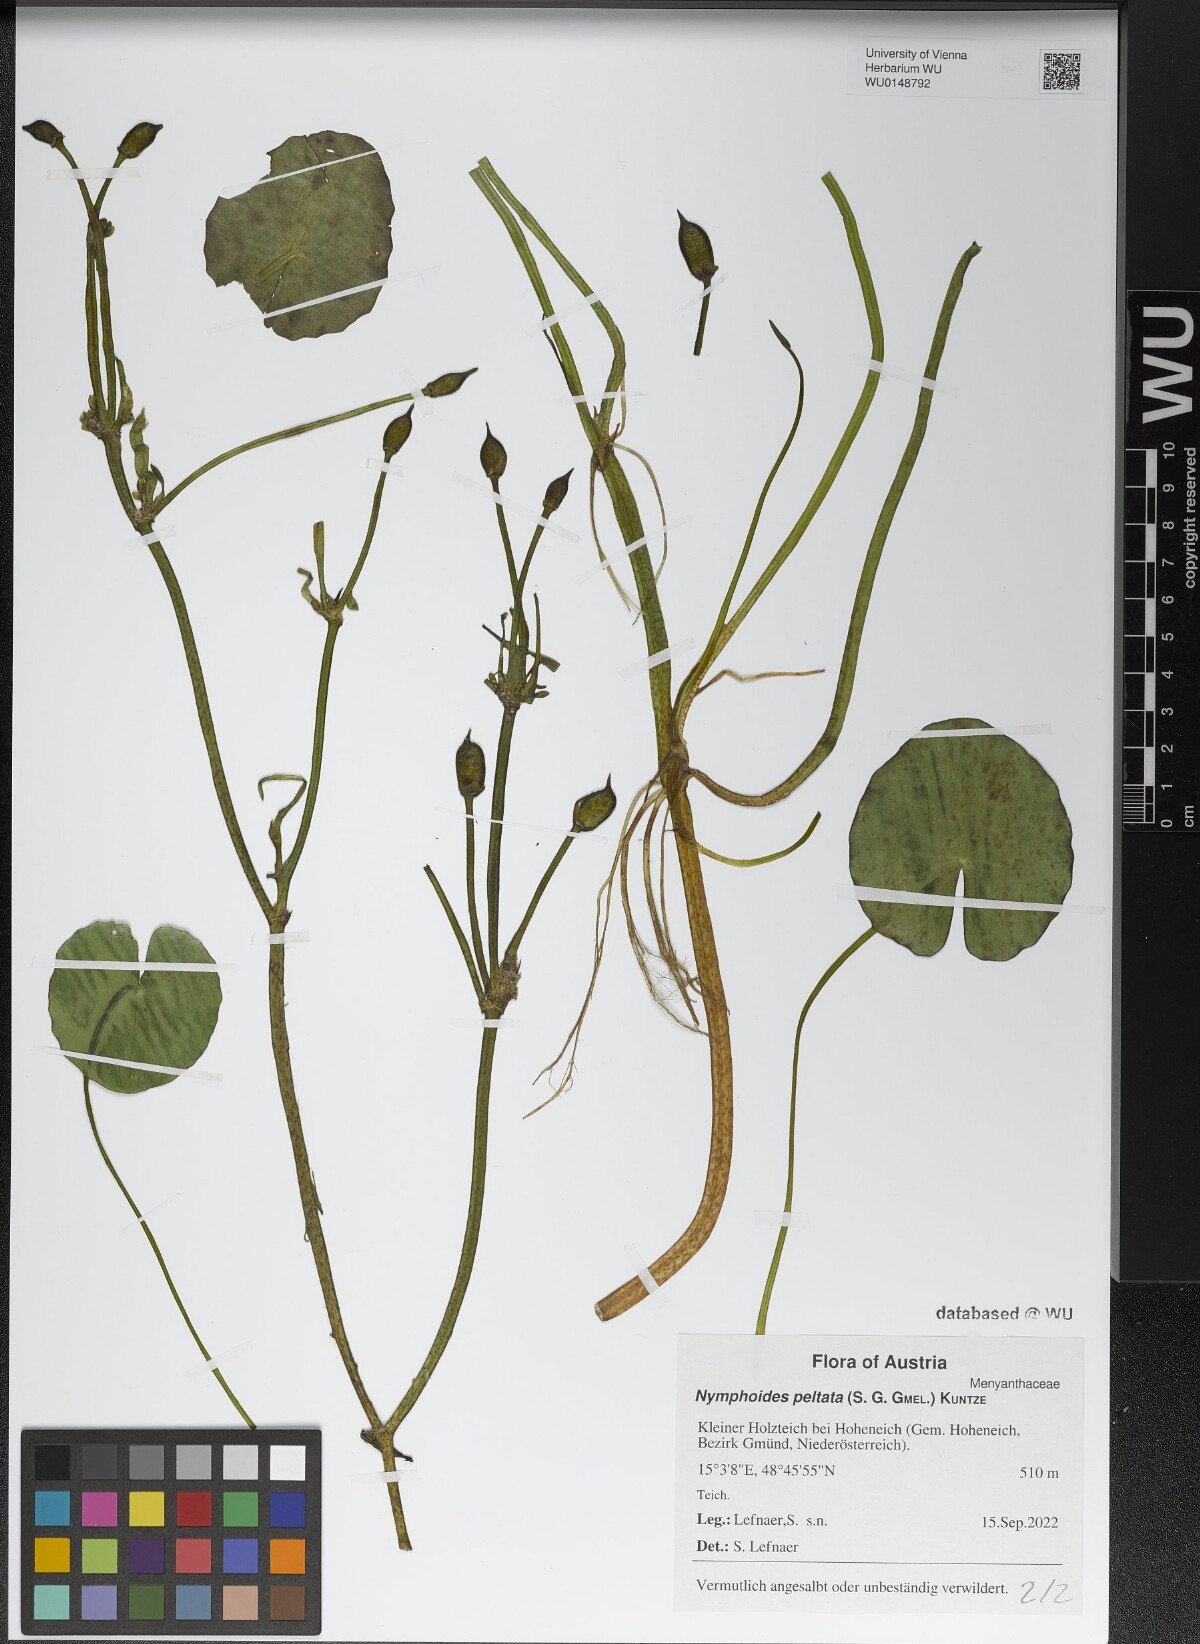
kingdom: Plantae
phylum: Tracheophyta
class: Magnoliopsida
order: Asterales
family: Menyanthaceae
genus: Nymphoides
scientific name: Nymphoides peltata
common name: Fringed water-lily
